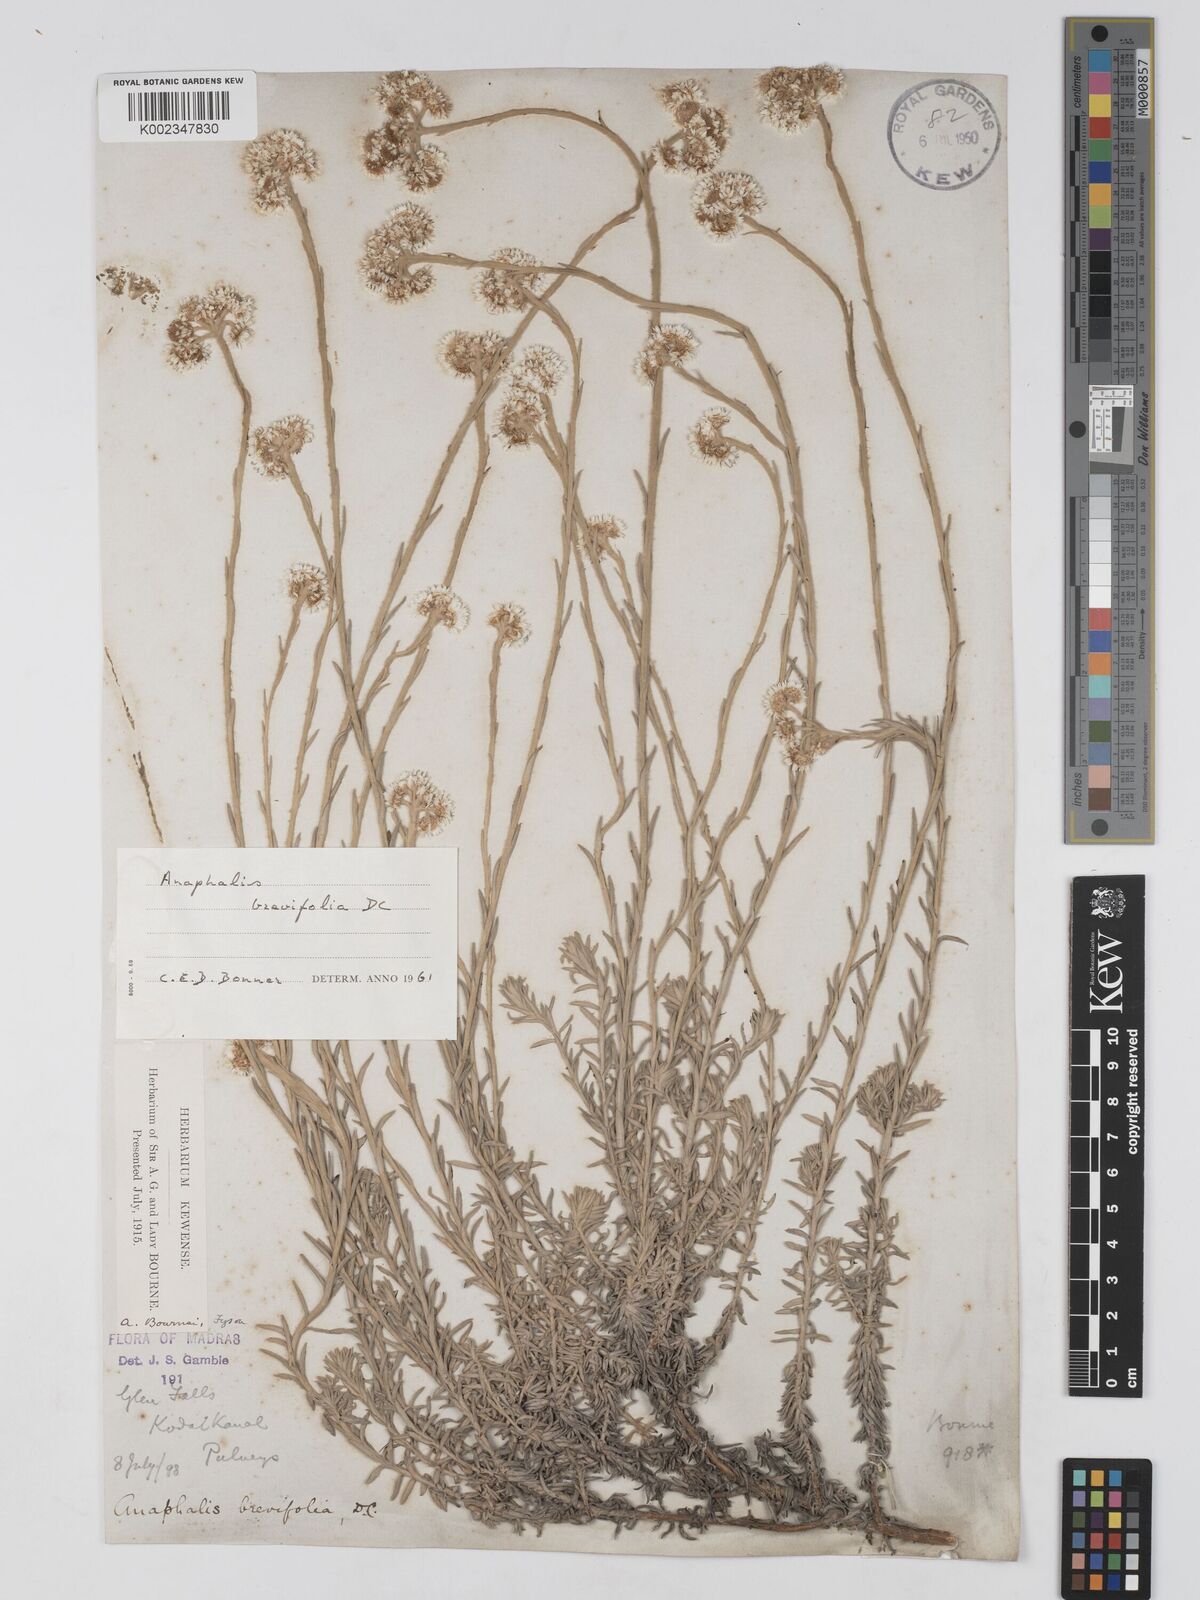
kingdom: Plantae
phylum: Tracheophyta
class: Magnoliopsida
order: Asterales
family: Asteraceae
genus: Anaphalis
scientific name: Anaphalis brevifolia
